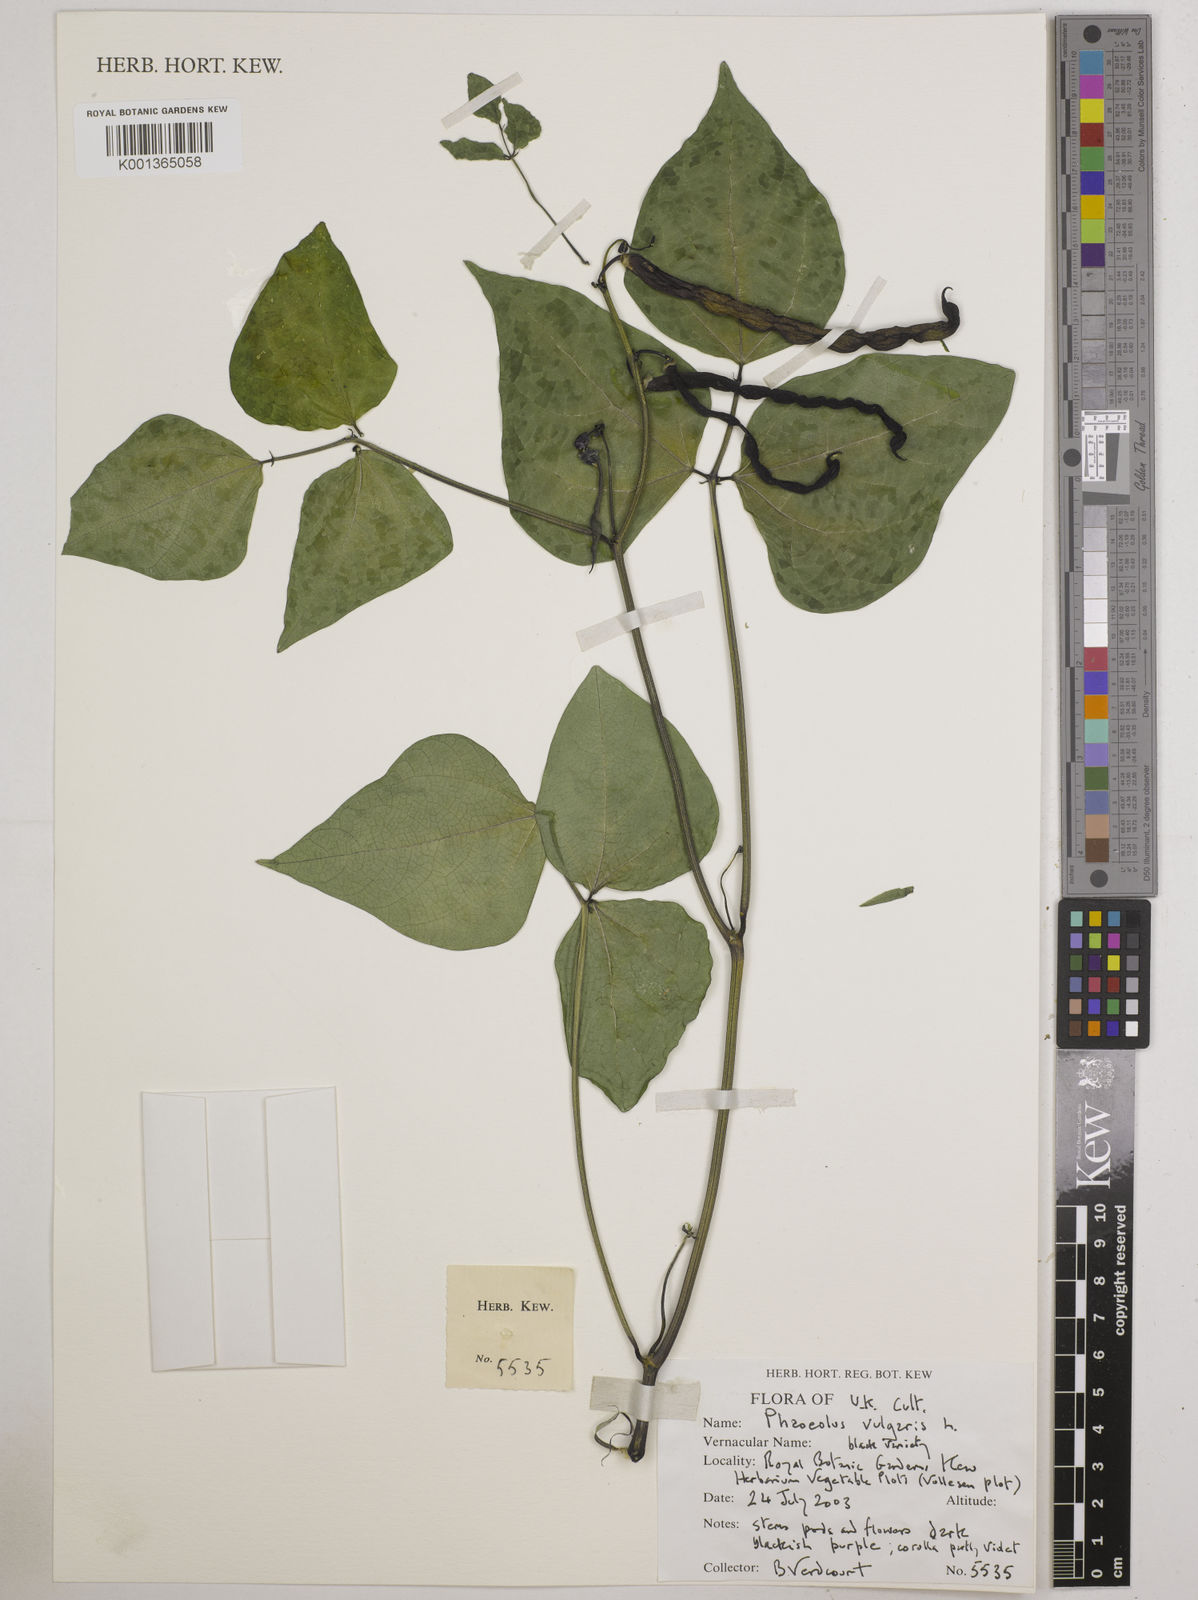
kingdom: Plantae
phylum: Tracheophyta
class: Magnoliopsida
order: Fabales
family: Fabaceae
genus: Phaseolus
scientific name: Phaseolus vulgaris
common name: Bean
